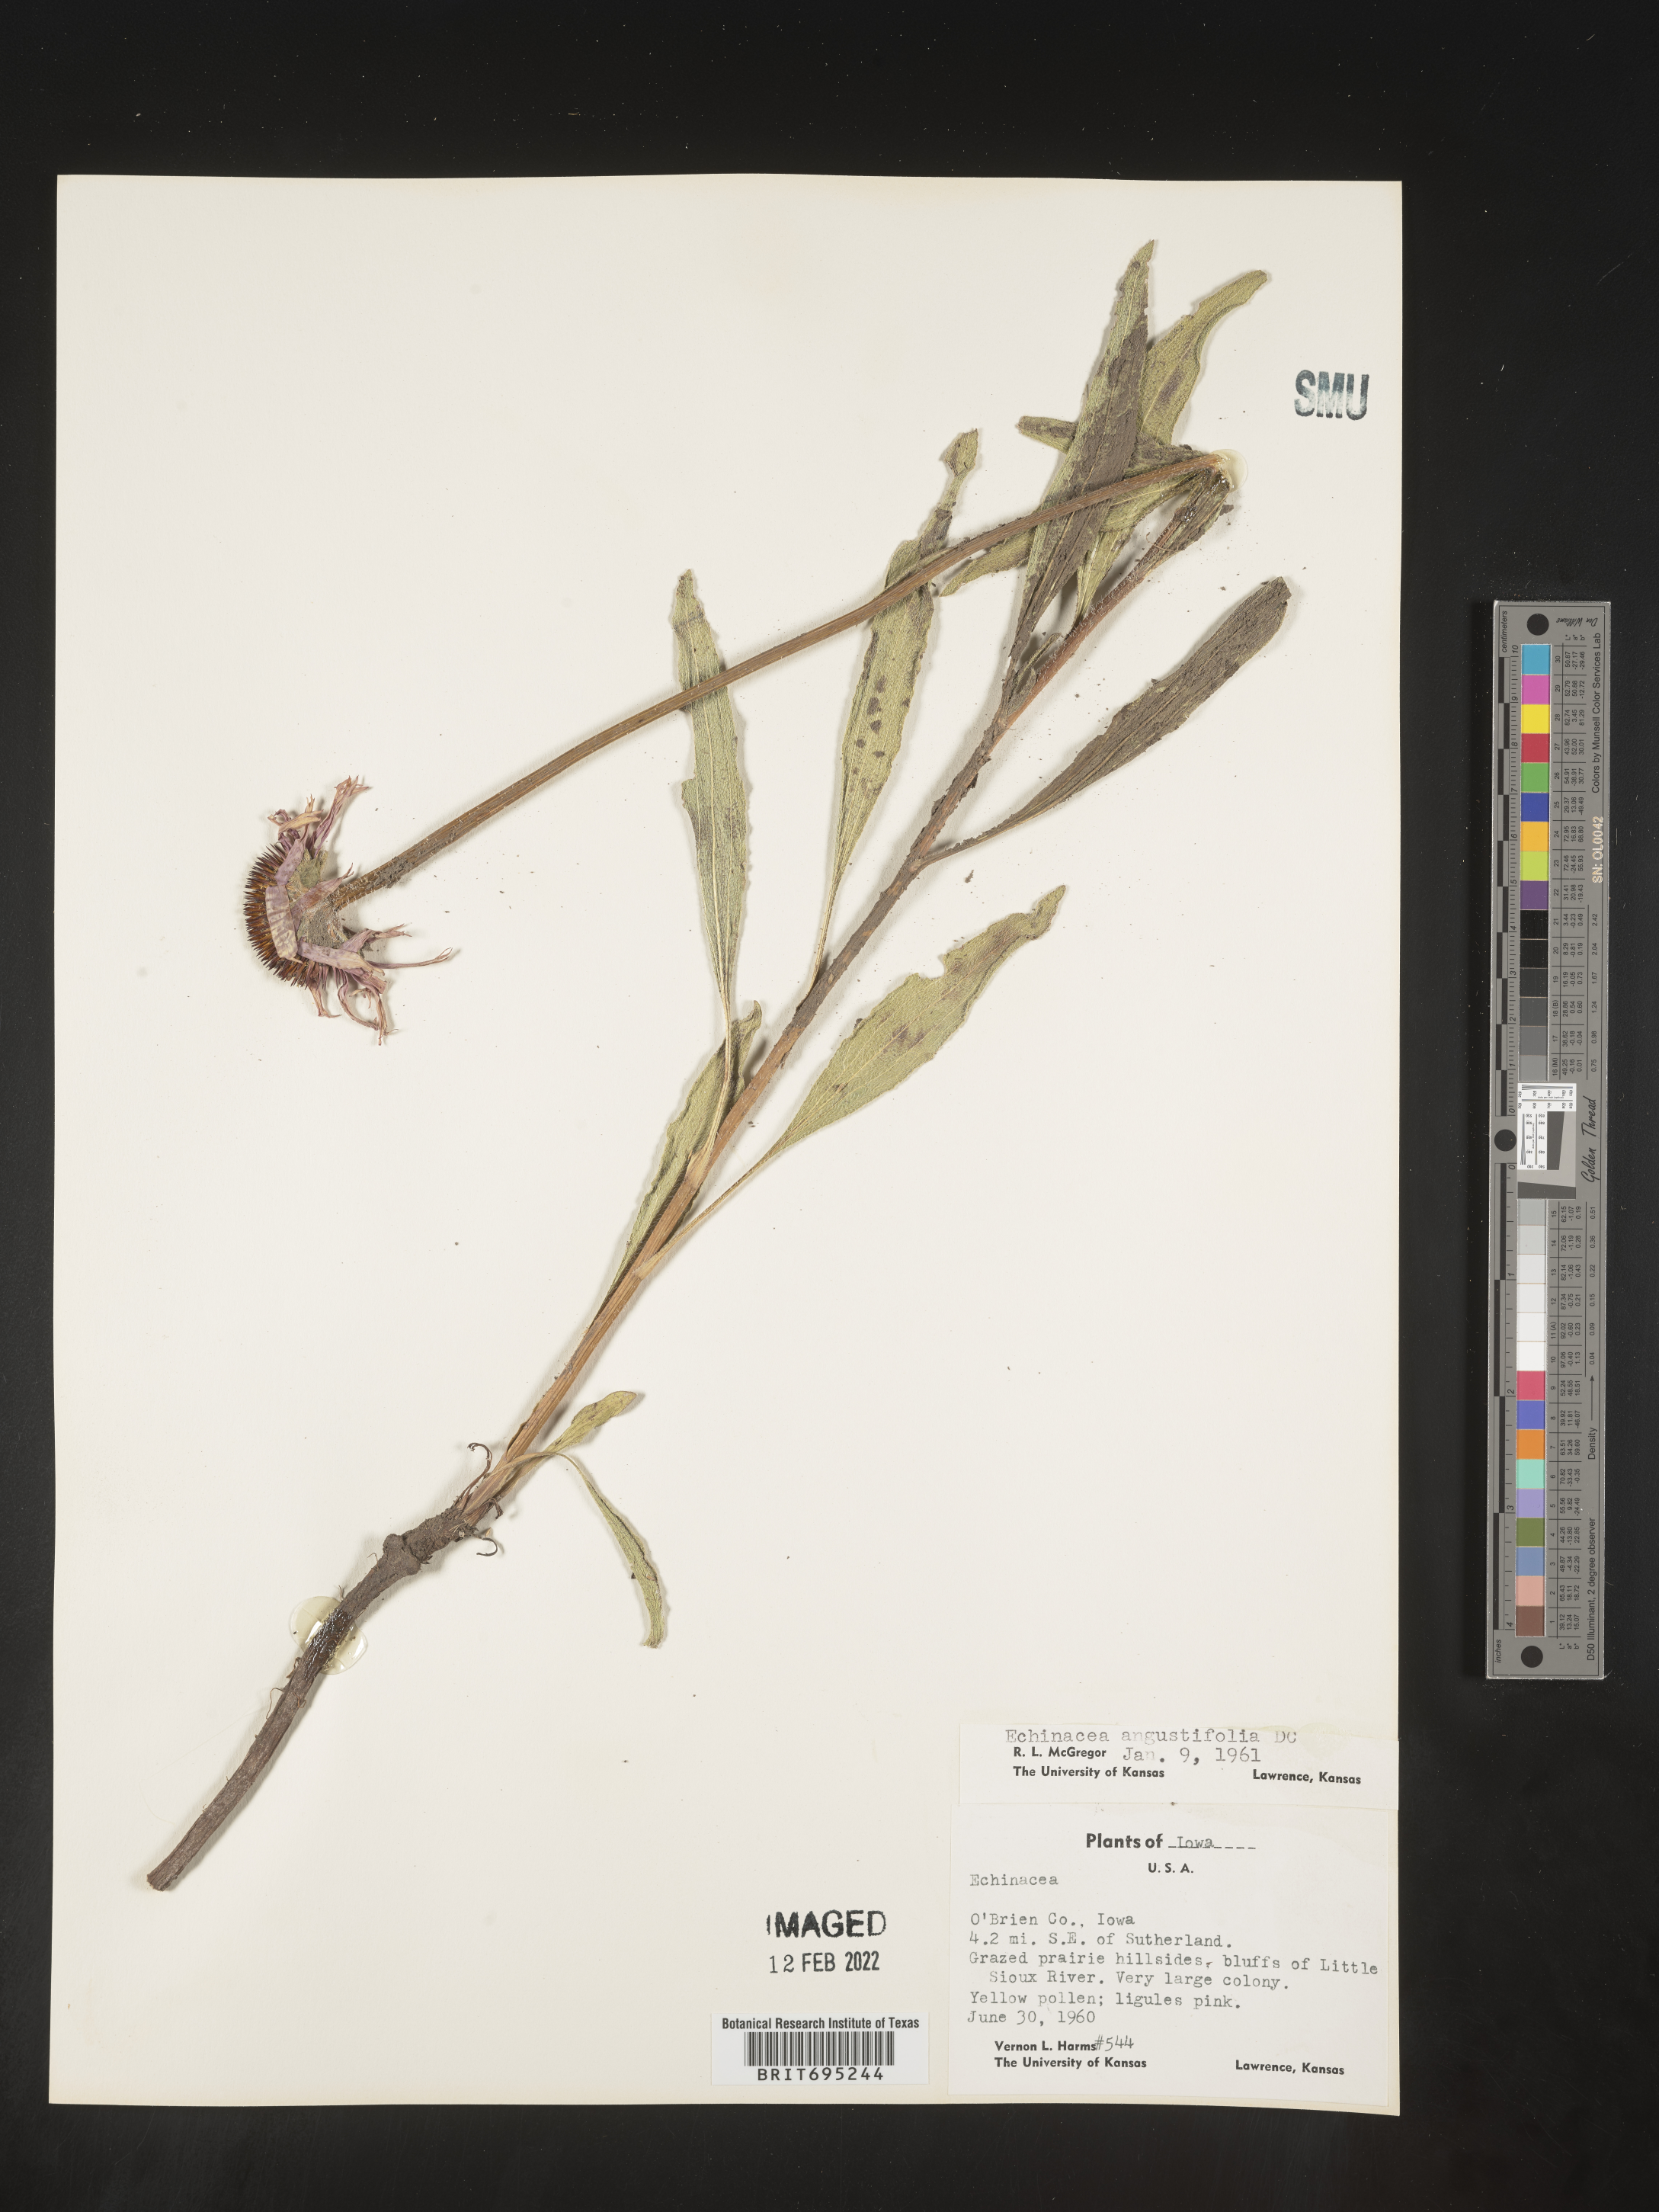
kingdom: Plantae
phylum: Tracheophyta
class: Magnoliopsida
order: Asterales
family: Asteraceae
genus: Echinacea
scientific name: Echinacea angustifolia
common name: Black-sampson echinacea
